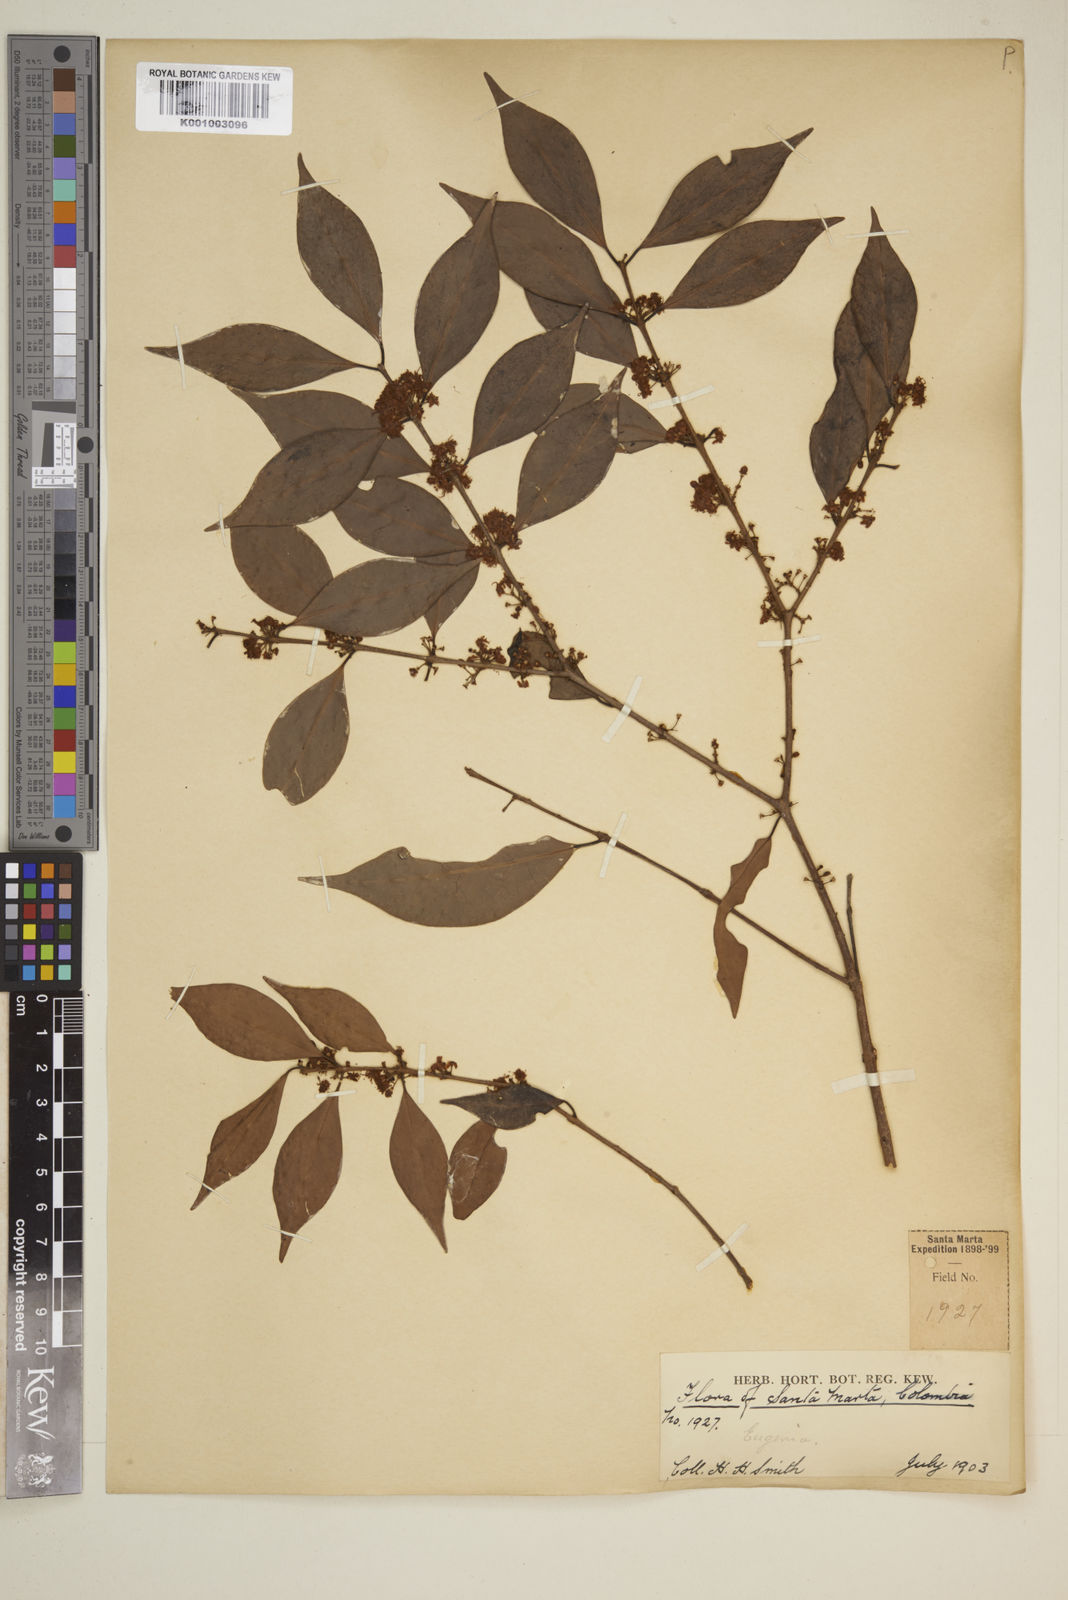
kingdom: Plantae
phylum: Tracheophyta
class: Magnoliopsida
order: Myrtales
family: Myrtaceae
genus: Eugenia
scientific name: Eugenia
